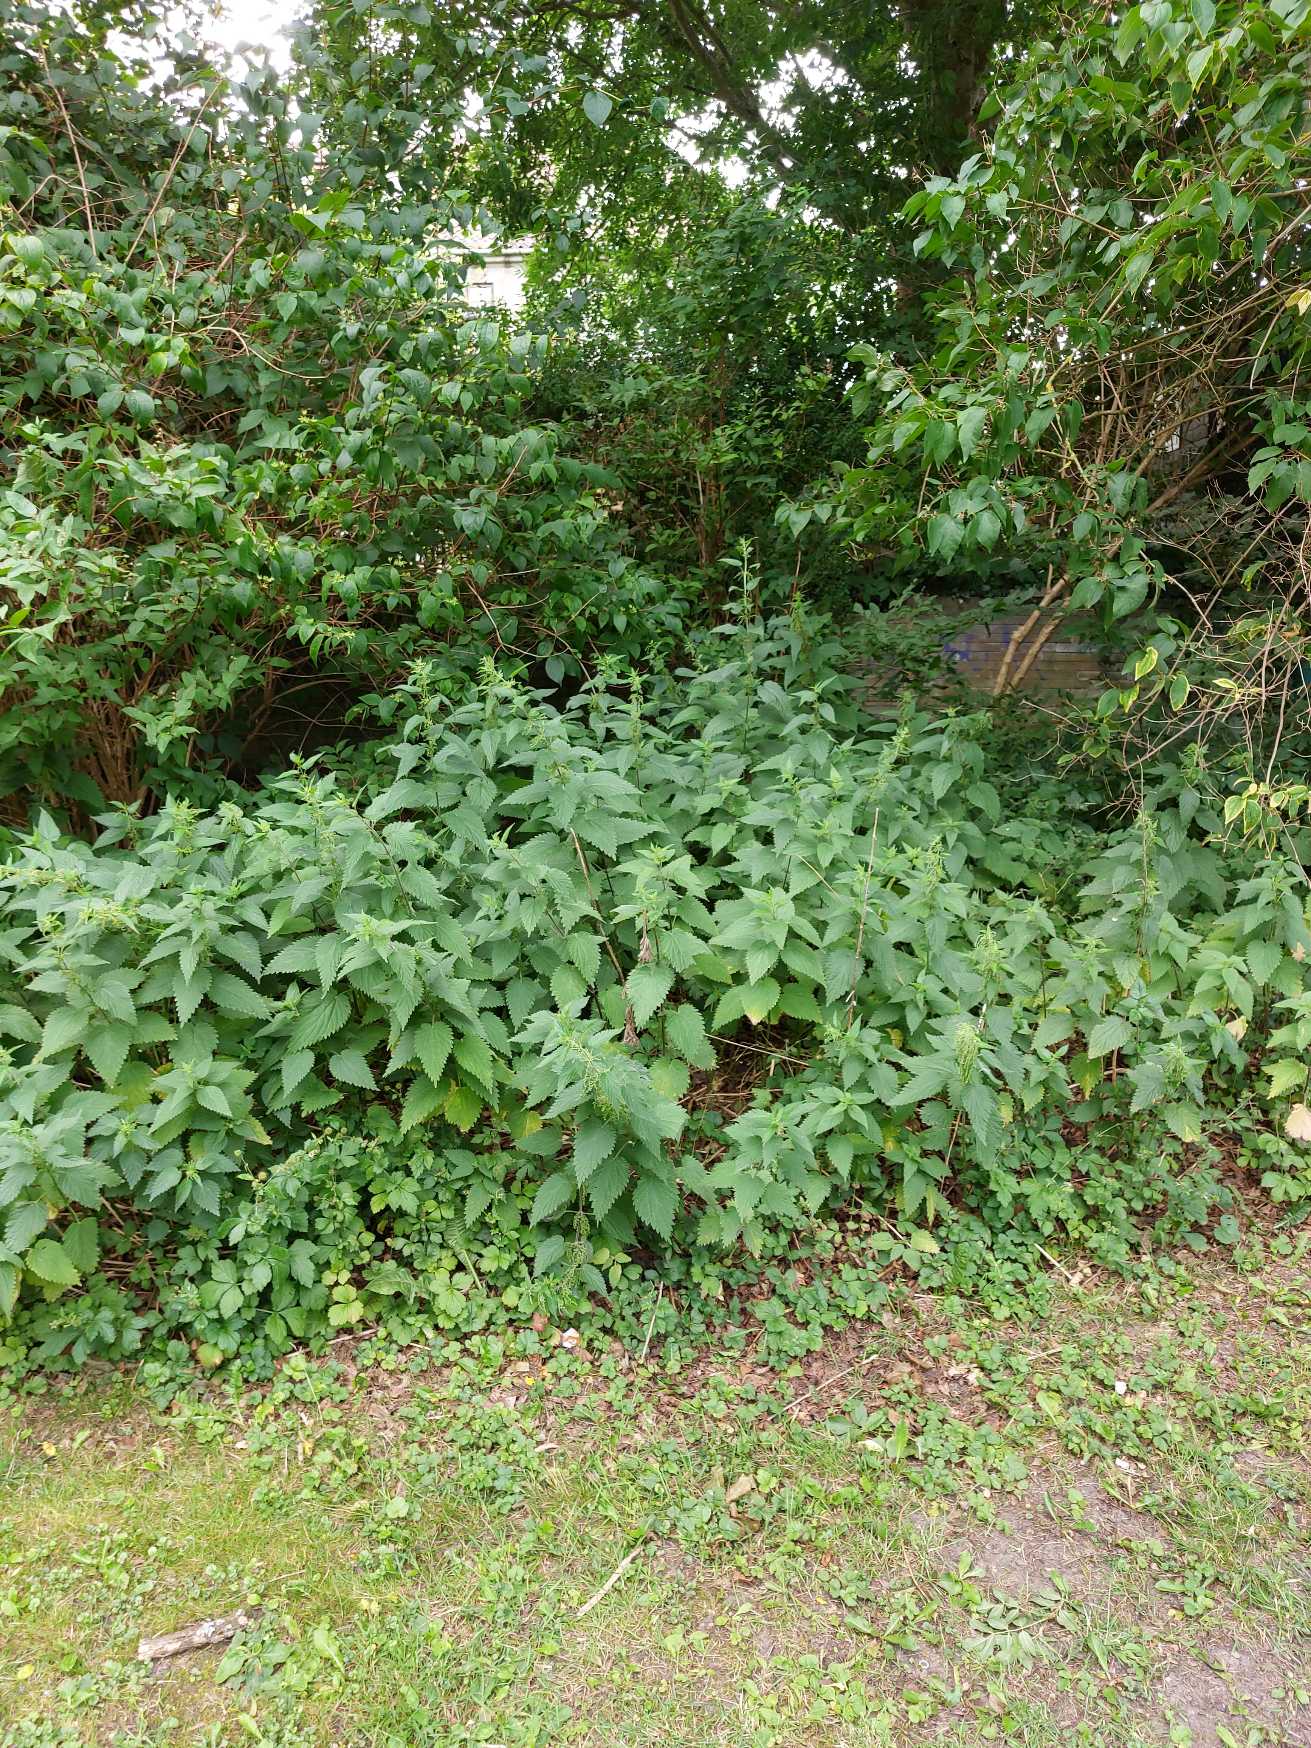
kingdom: Plantae
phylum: Tracheophyta
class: Magnoliopsida
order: Rosales
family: Urticaceae
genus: Urtica
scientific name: Urtica dioica
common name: Stor nælde
